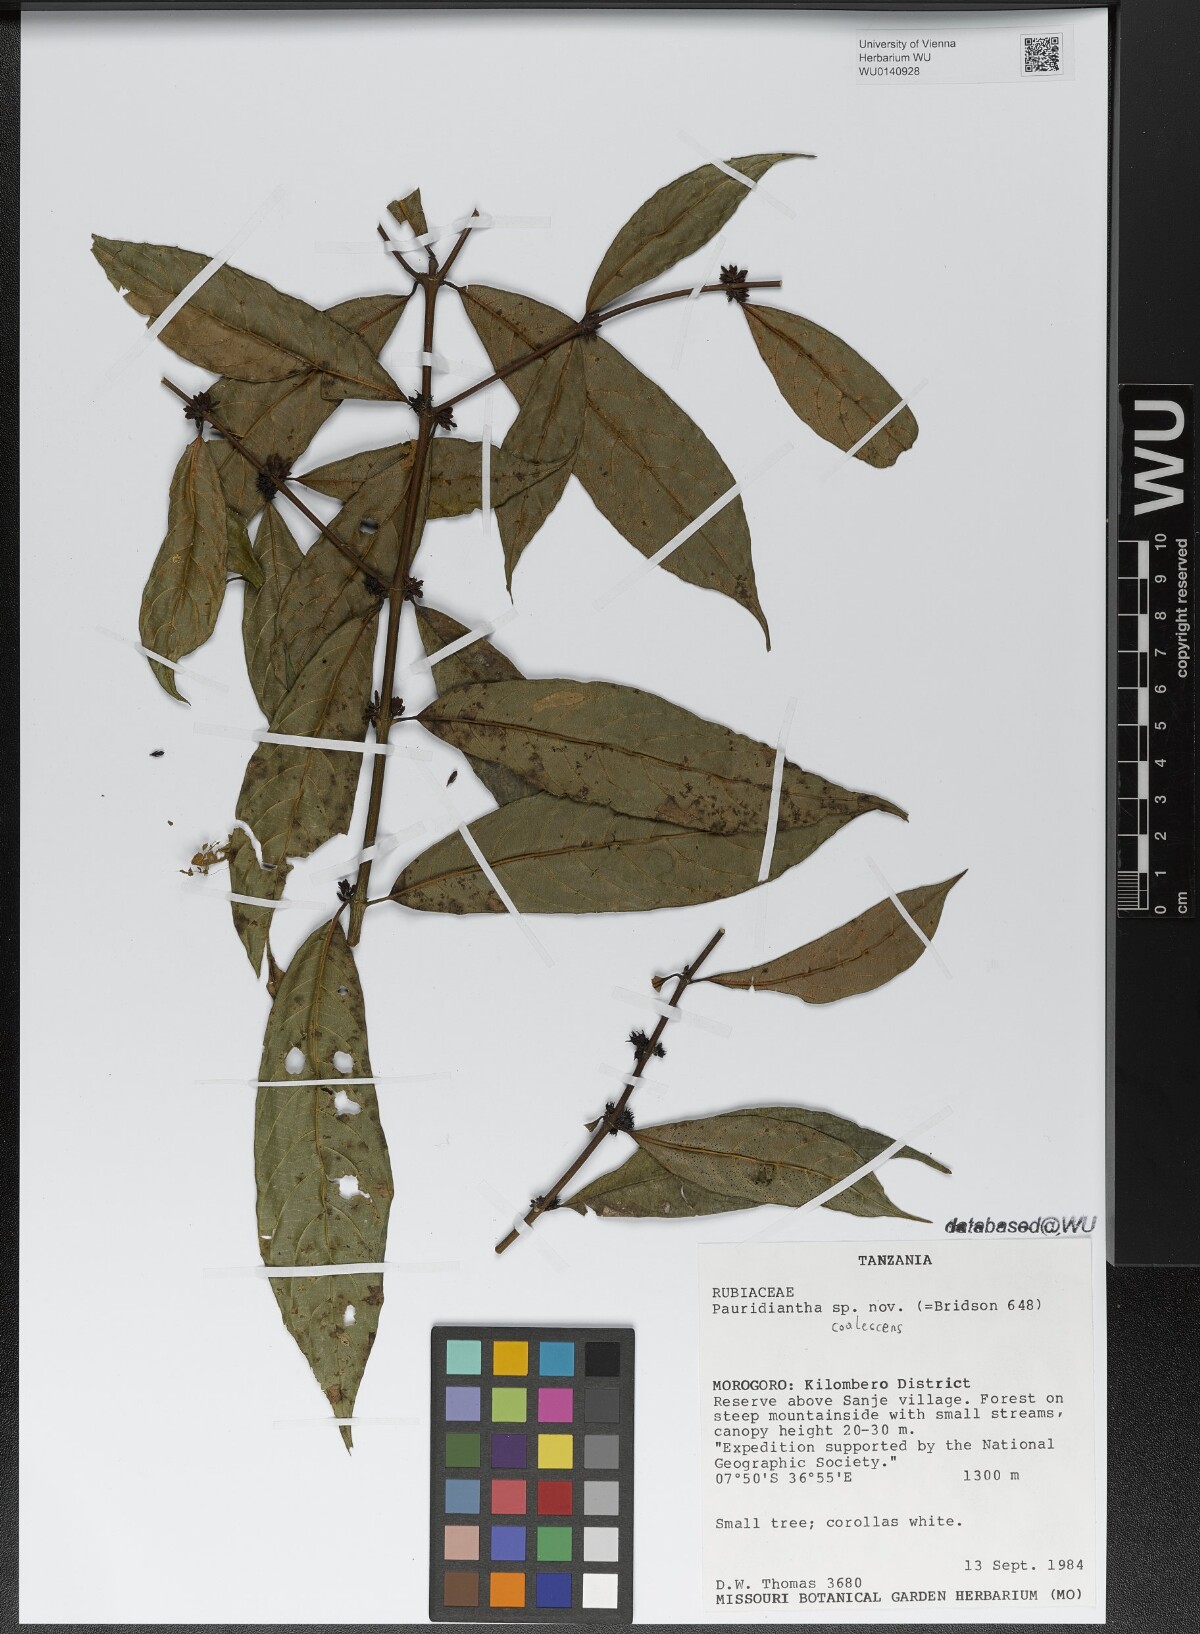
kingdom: Plantae
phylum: Tracheophyta
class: Magnoliopsida
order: Gentianales
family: Rubiaceae
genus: Pauridiantha
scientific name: Pauridiantha coalescens
